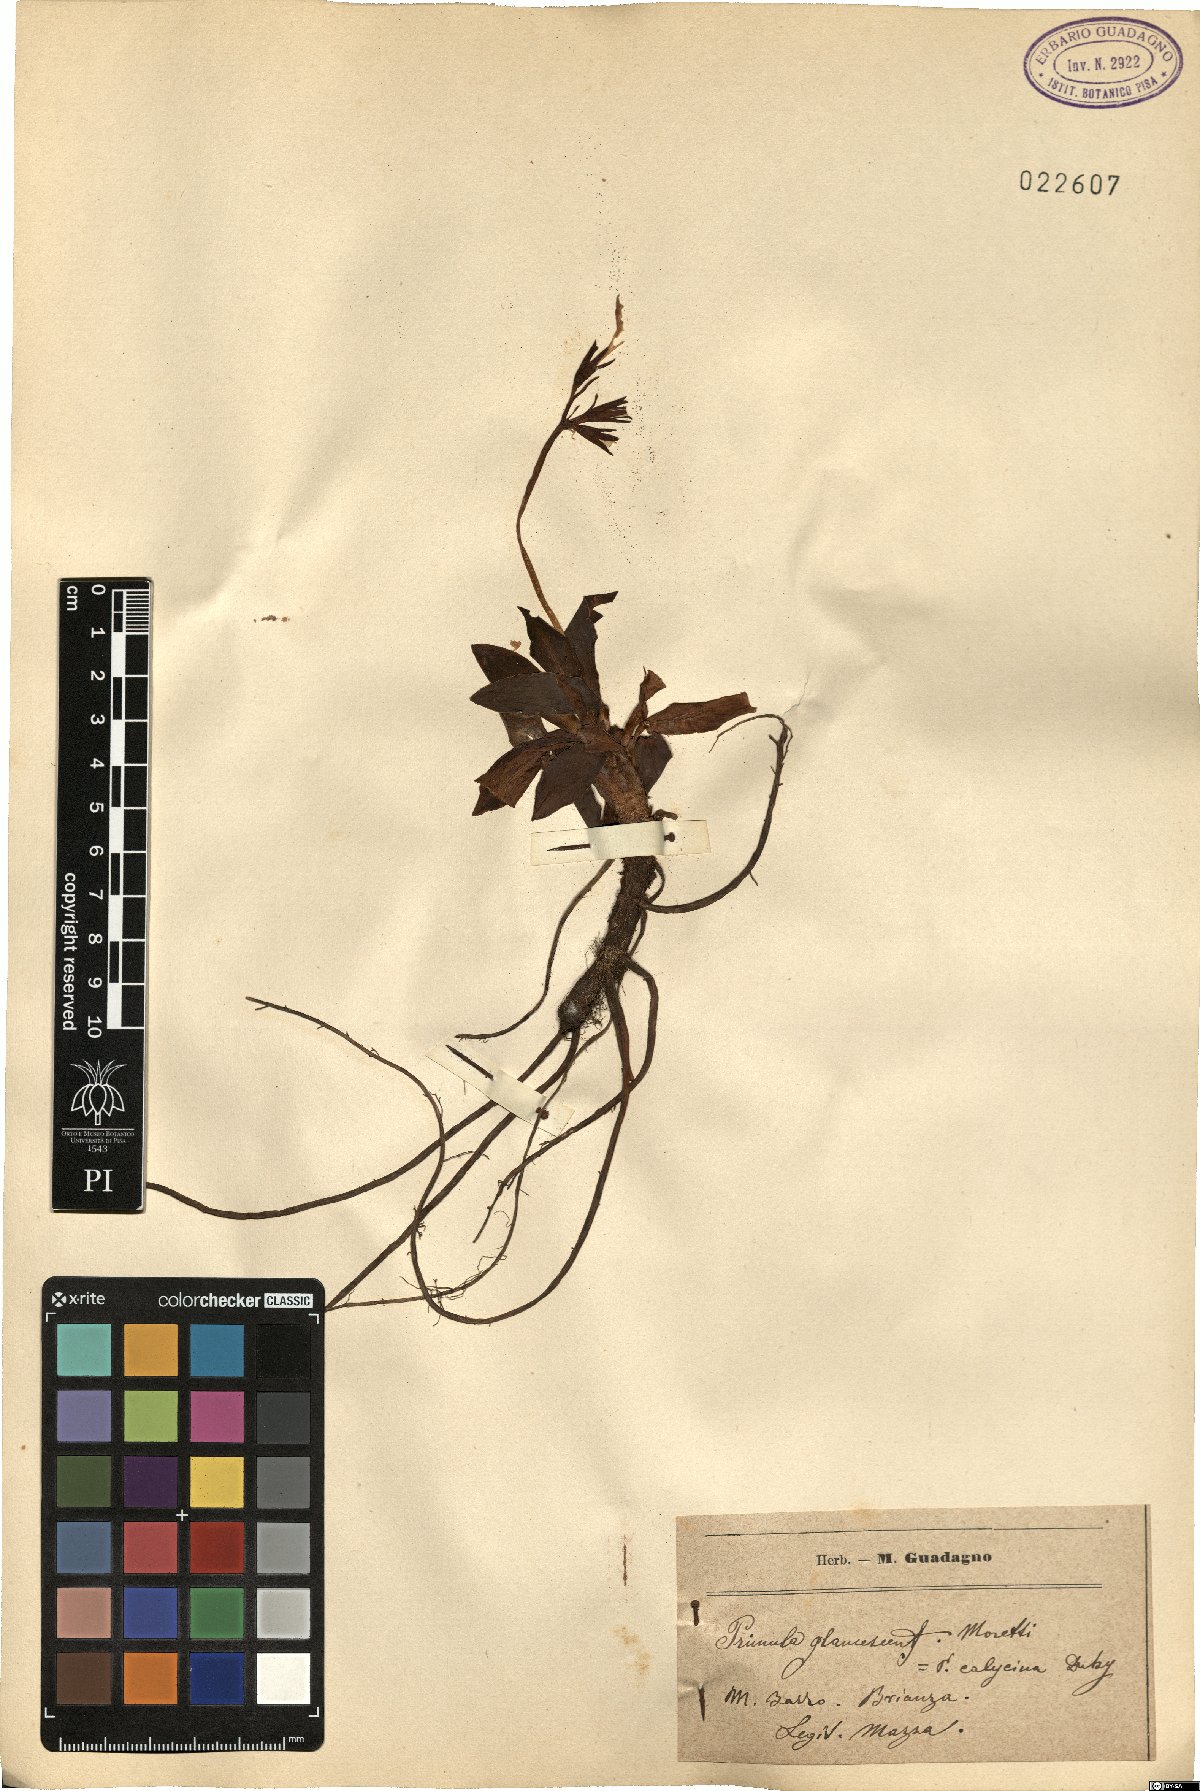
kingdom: Plantae
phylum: Tracheophyta
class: Magnoliopsida
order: Ericales
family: Primulaceae
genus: Primula
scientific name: Primula glaucescens
